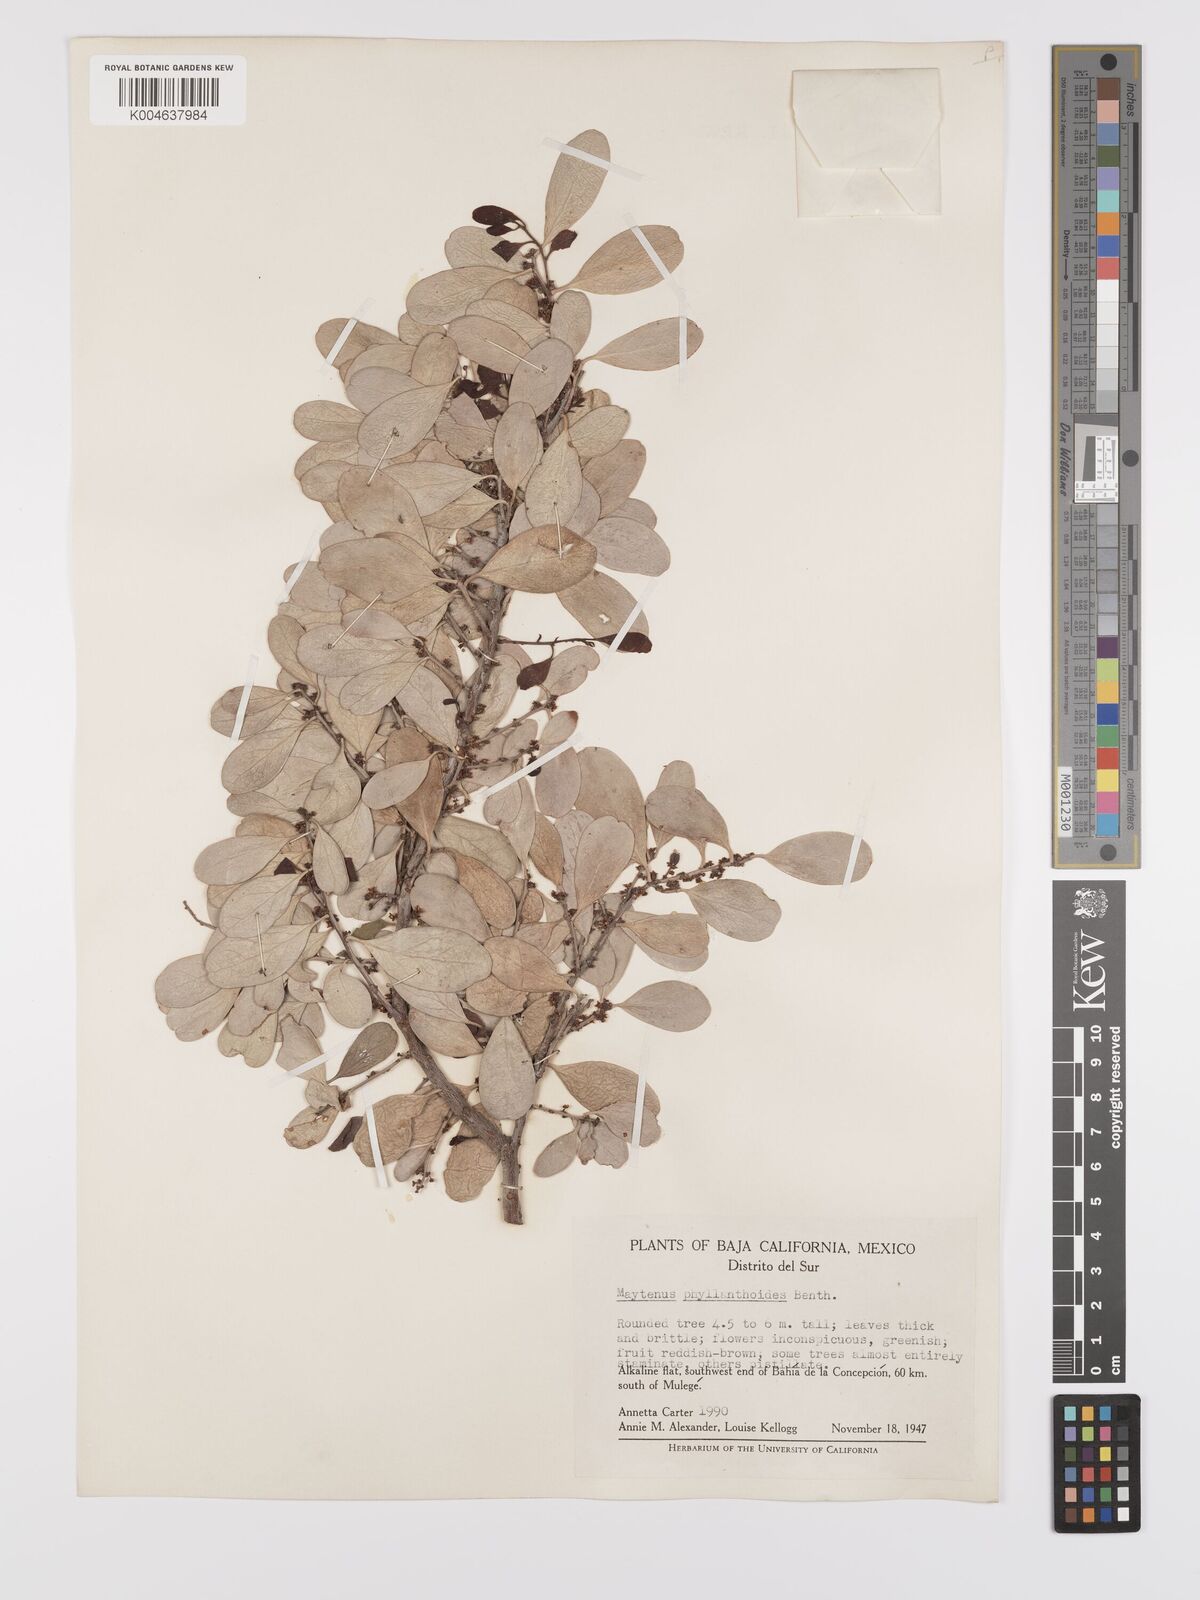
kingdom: Plantae
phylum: Tracheophyta
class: Magnoliopsida
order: Celastrales
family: Celastraceae
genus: Tricerma
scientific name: Tricerma phyllanthoides
